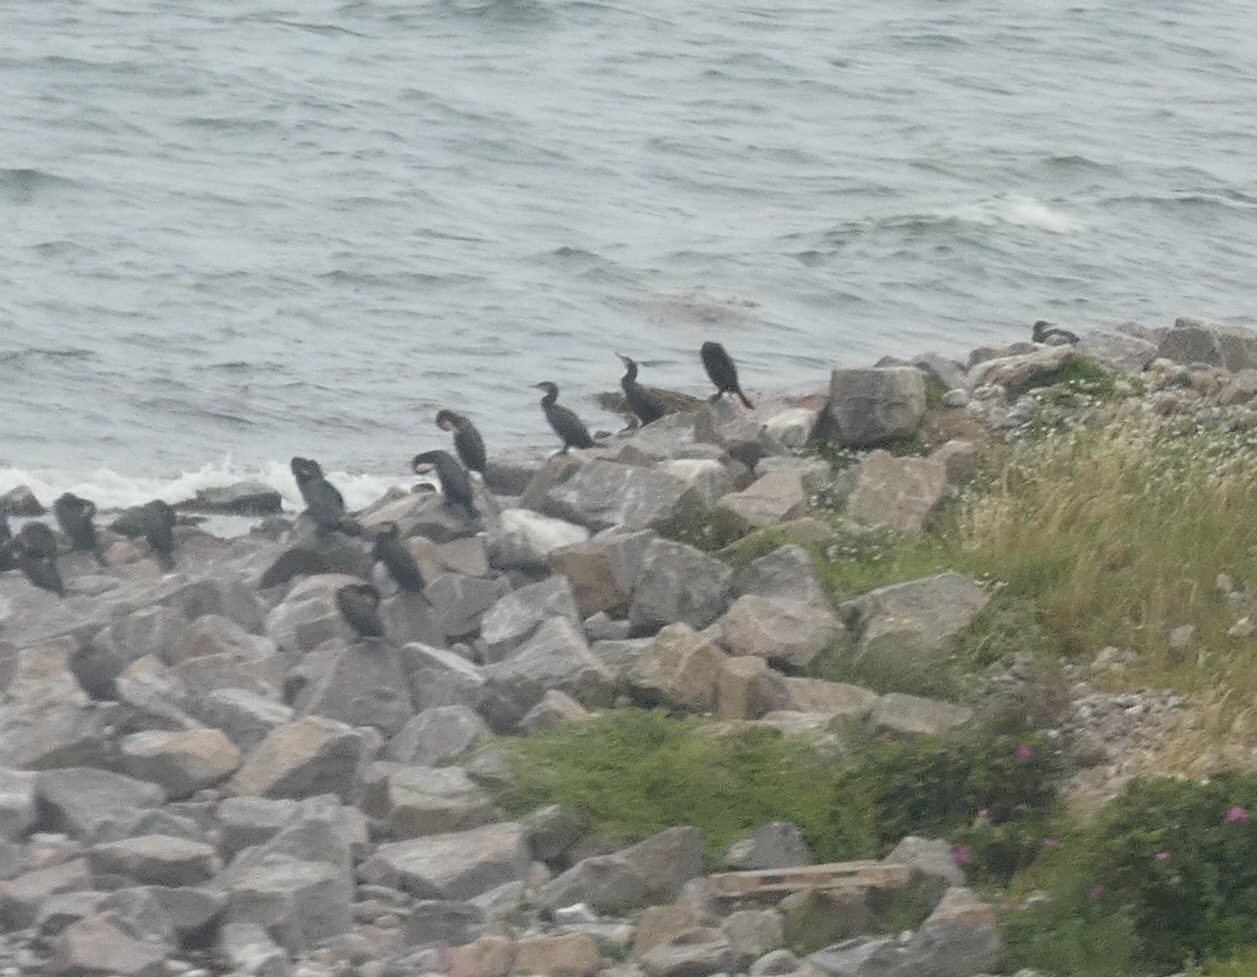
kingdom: Animalia
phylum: Chordata
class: Aves
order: Suliformes
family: Phalacrocoracidae
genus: Phalacrocorax
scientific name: Phalacrocorax carbo
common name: Skarv
